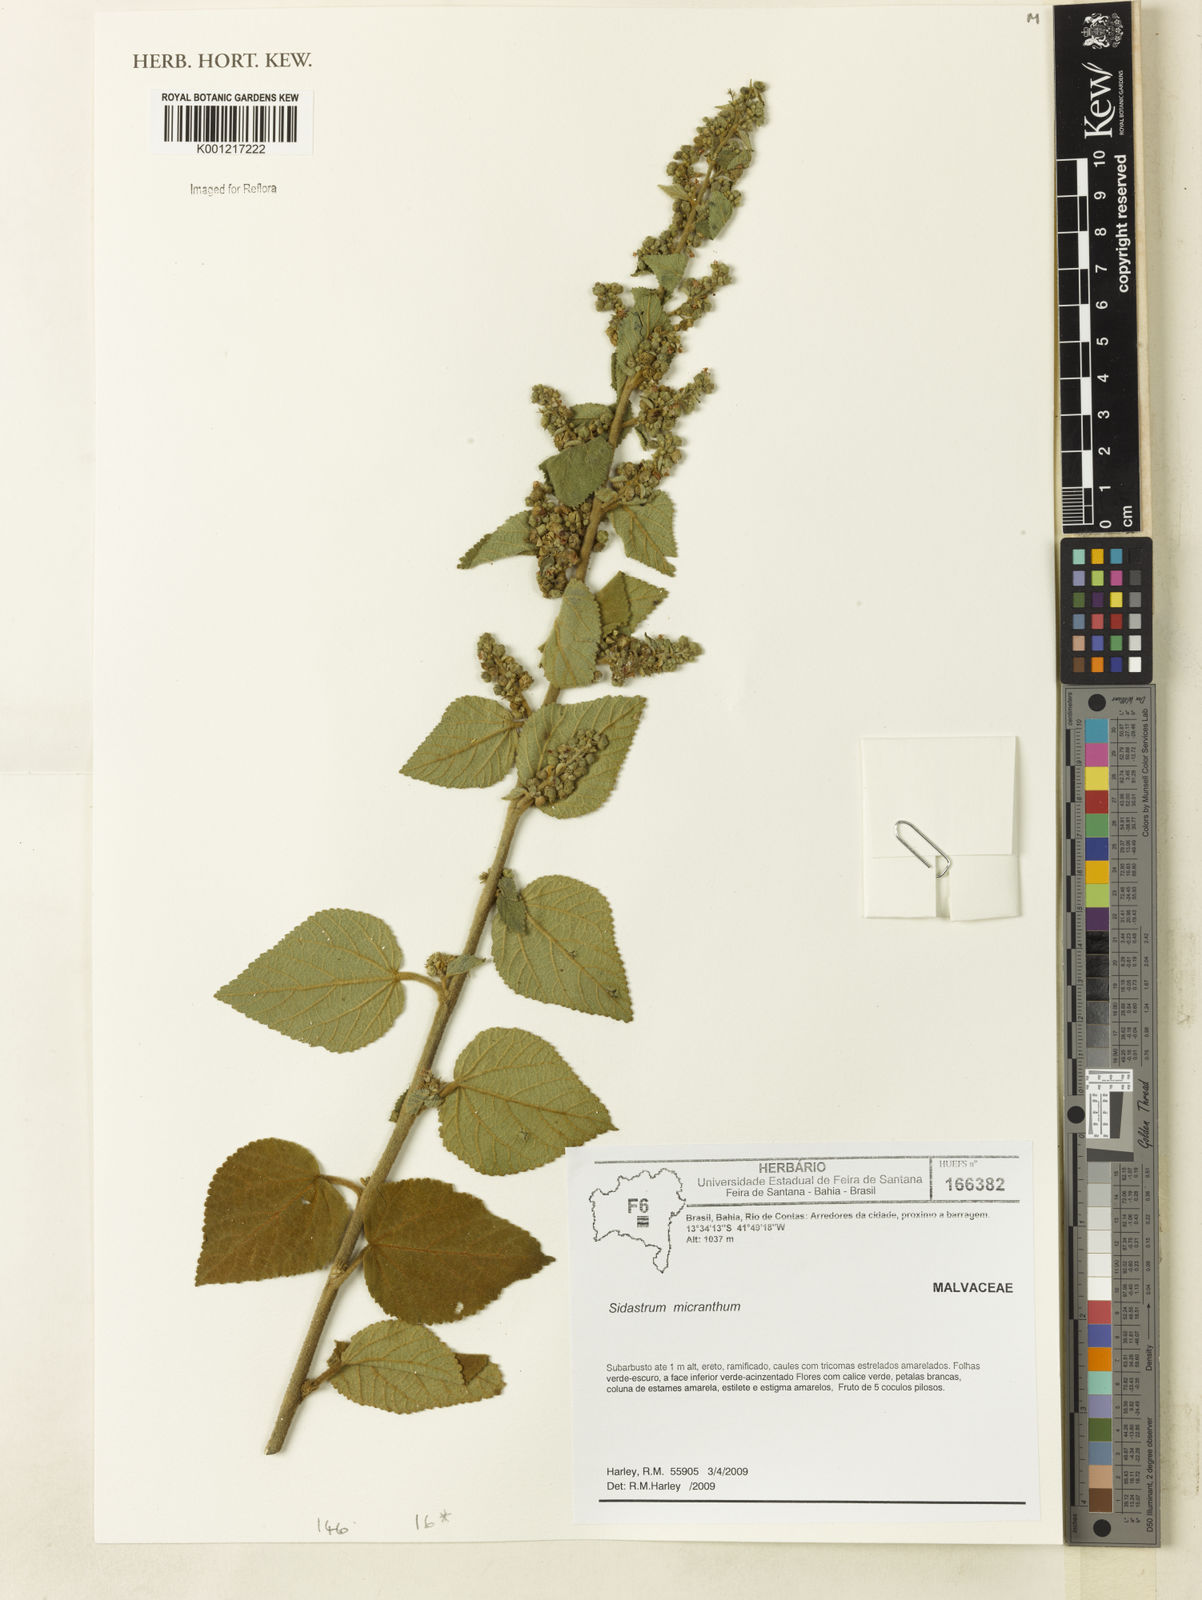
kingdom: Plantae
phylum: Tracheophyta
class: Magnoliopsida
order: Malvales
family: Malvaceae
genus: Sidastrum
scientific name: Sidastrum micranthum
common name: Dainty sandmallow
